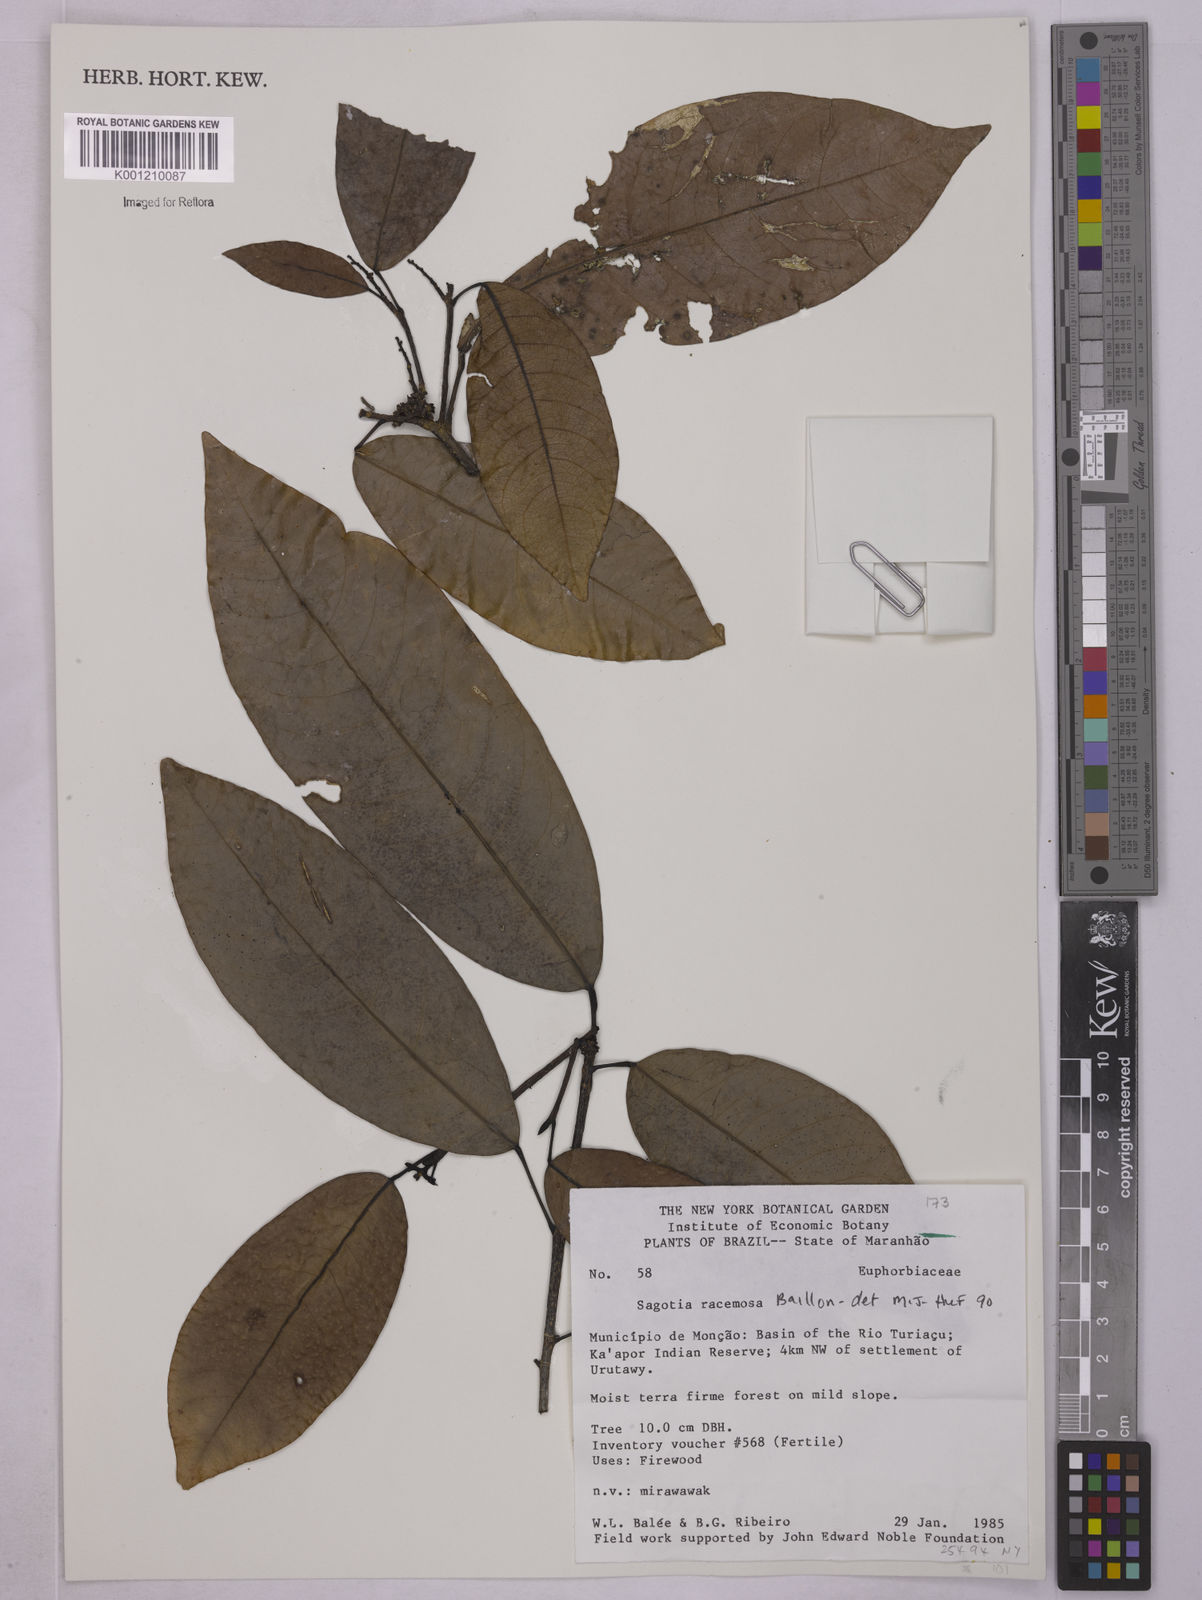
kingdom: Plantae
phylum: Tracheophyta
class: Magnoliopsida
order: Malpighiales
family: Euphorbiaceae
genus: Sagotia
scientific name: Sagotia racemosa
